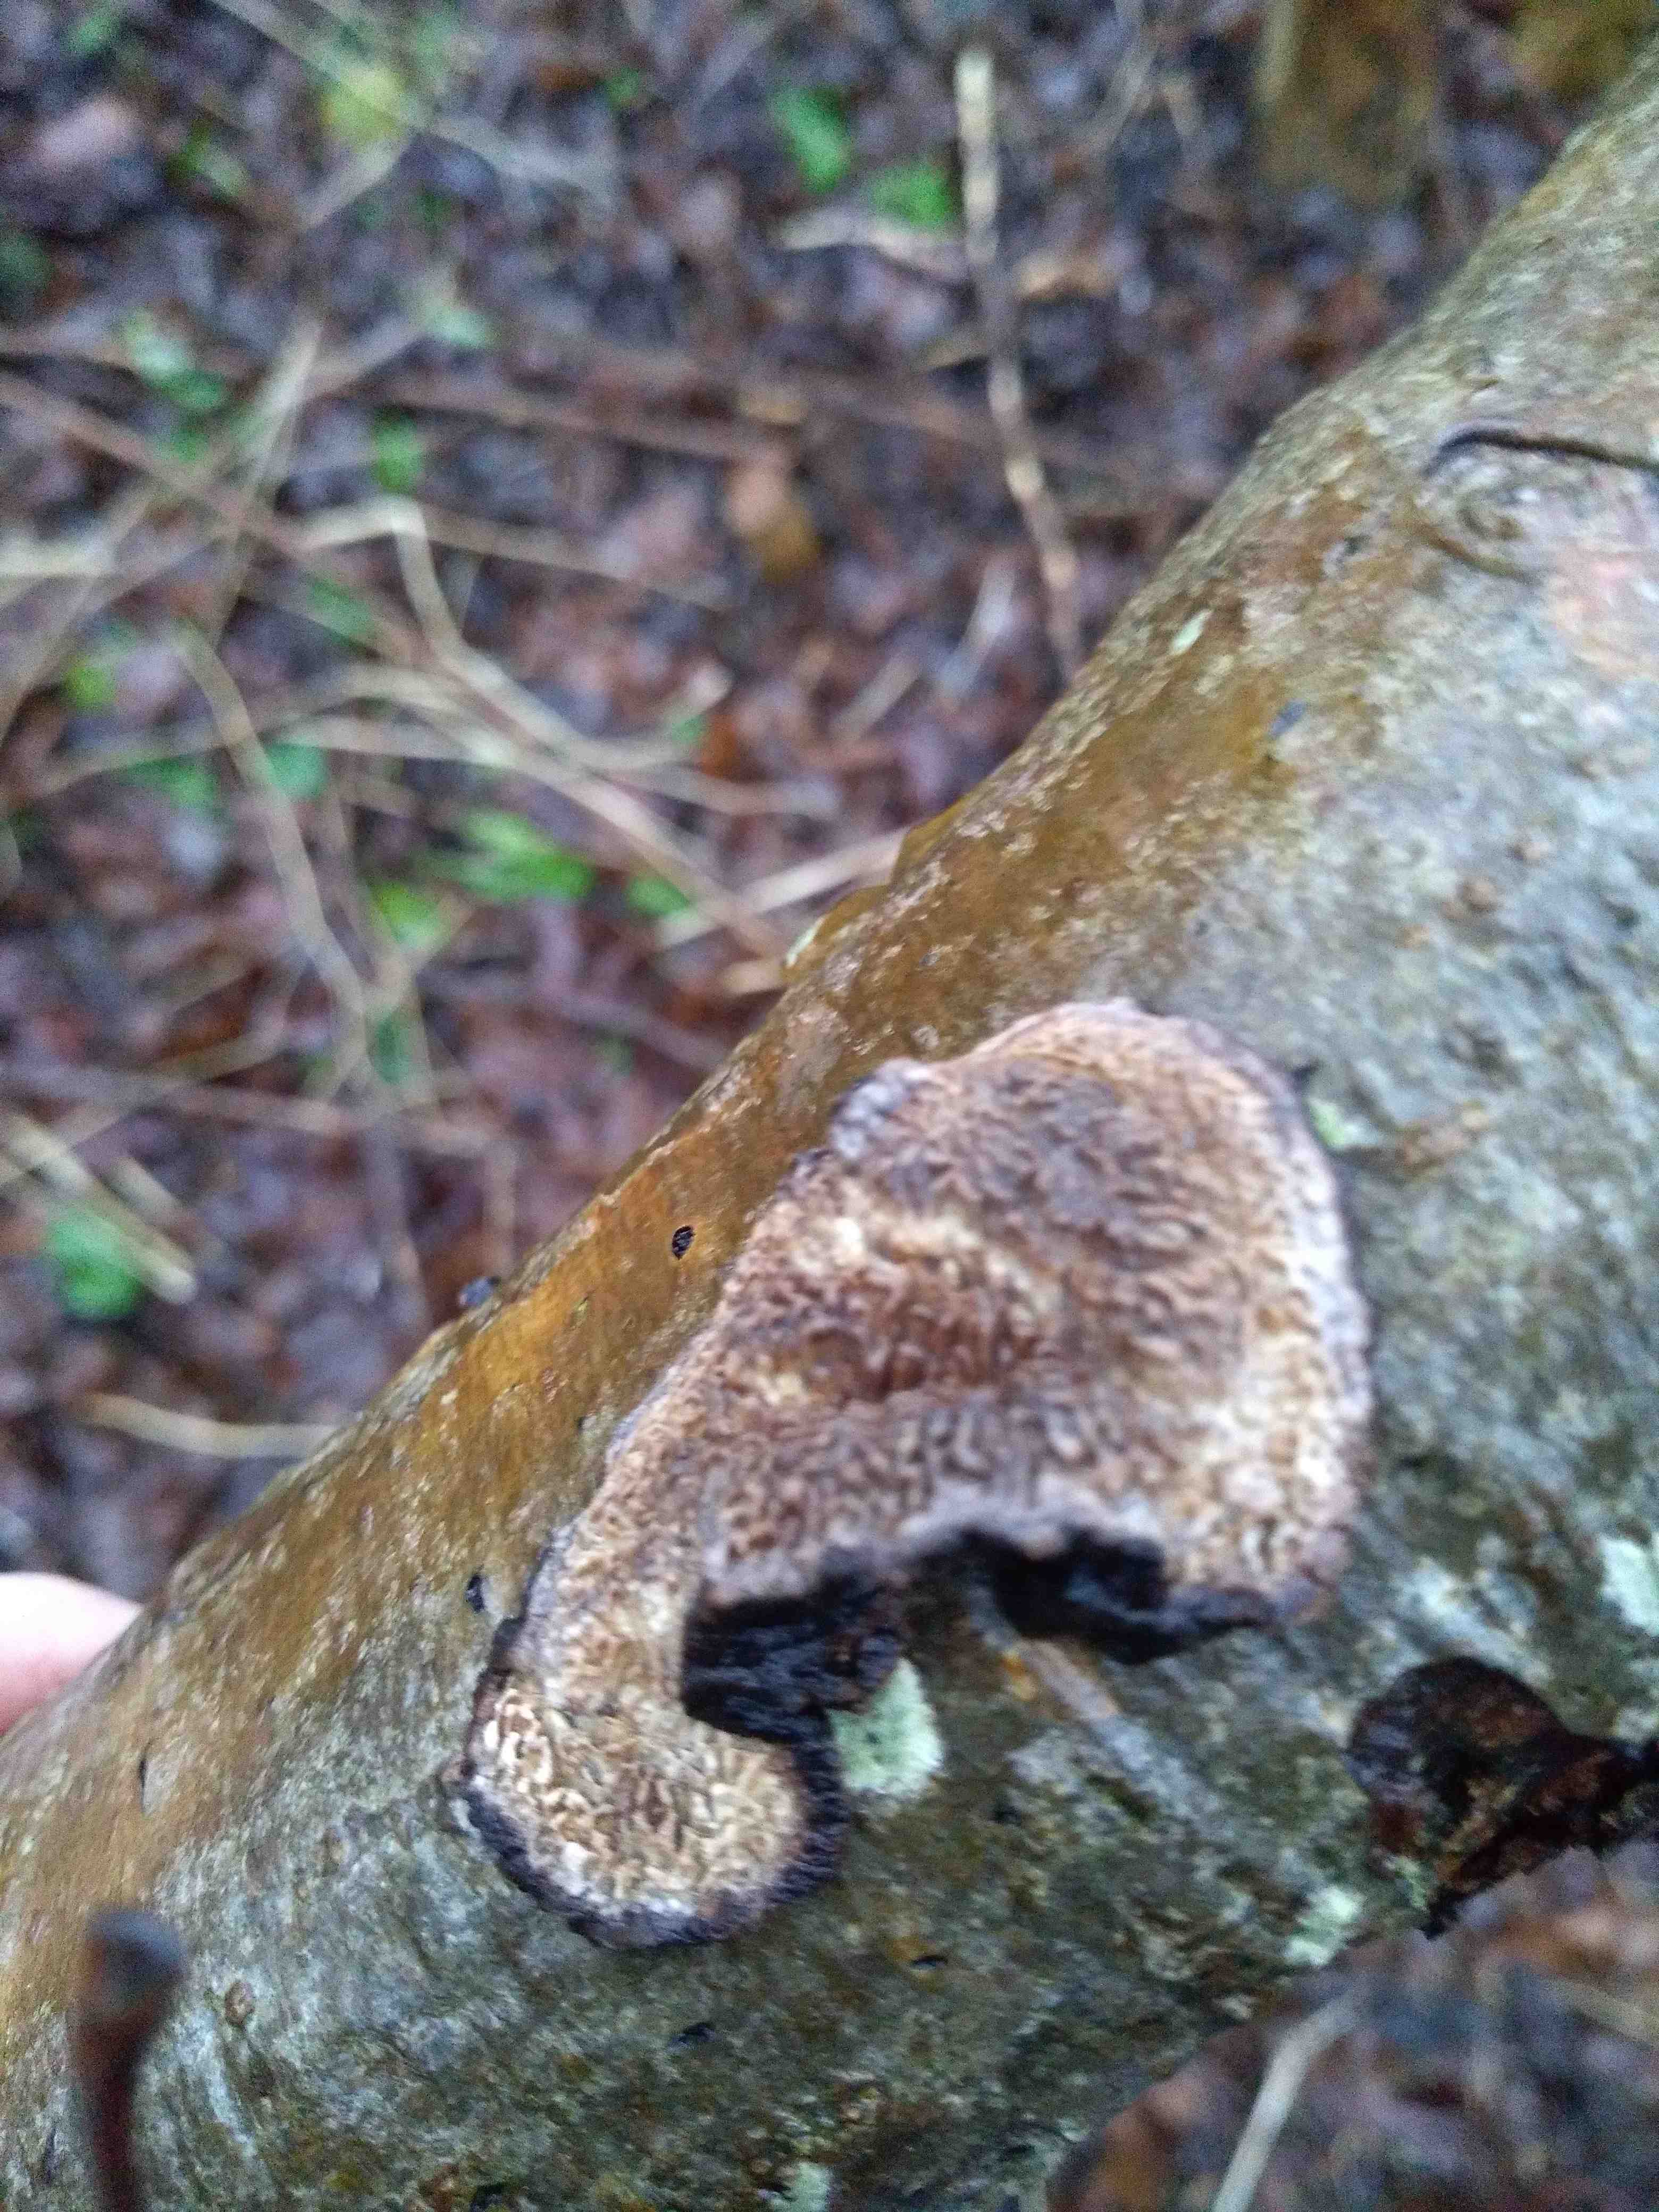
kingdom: Fungi
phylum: Basidiomycota
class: Agaricomycetes
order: Polyporales
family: Polyporaceae
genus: Podofomes
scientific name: Podofomes mollis
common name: blød begporesvamp
